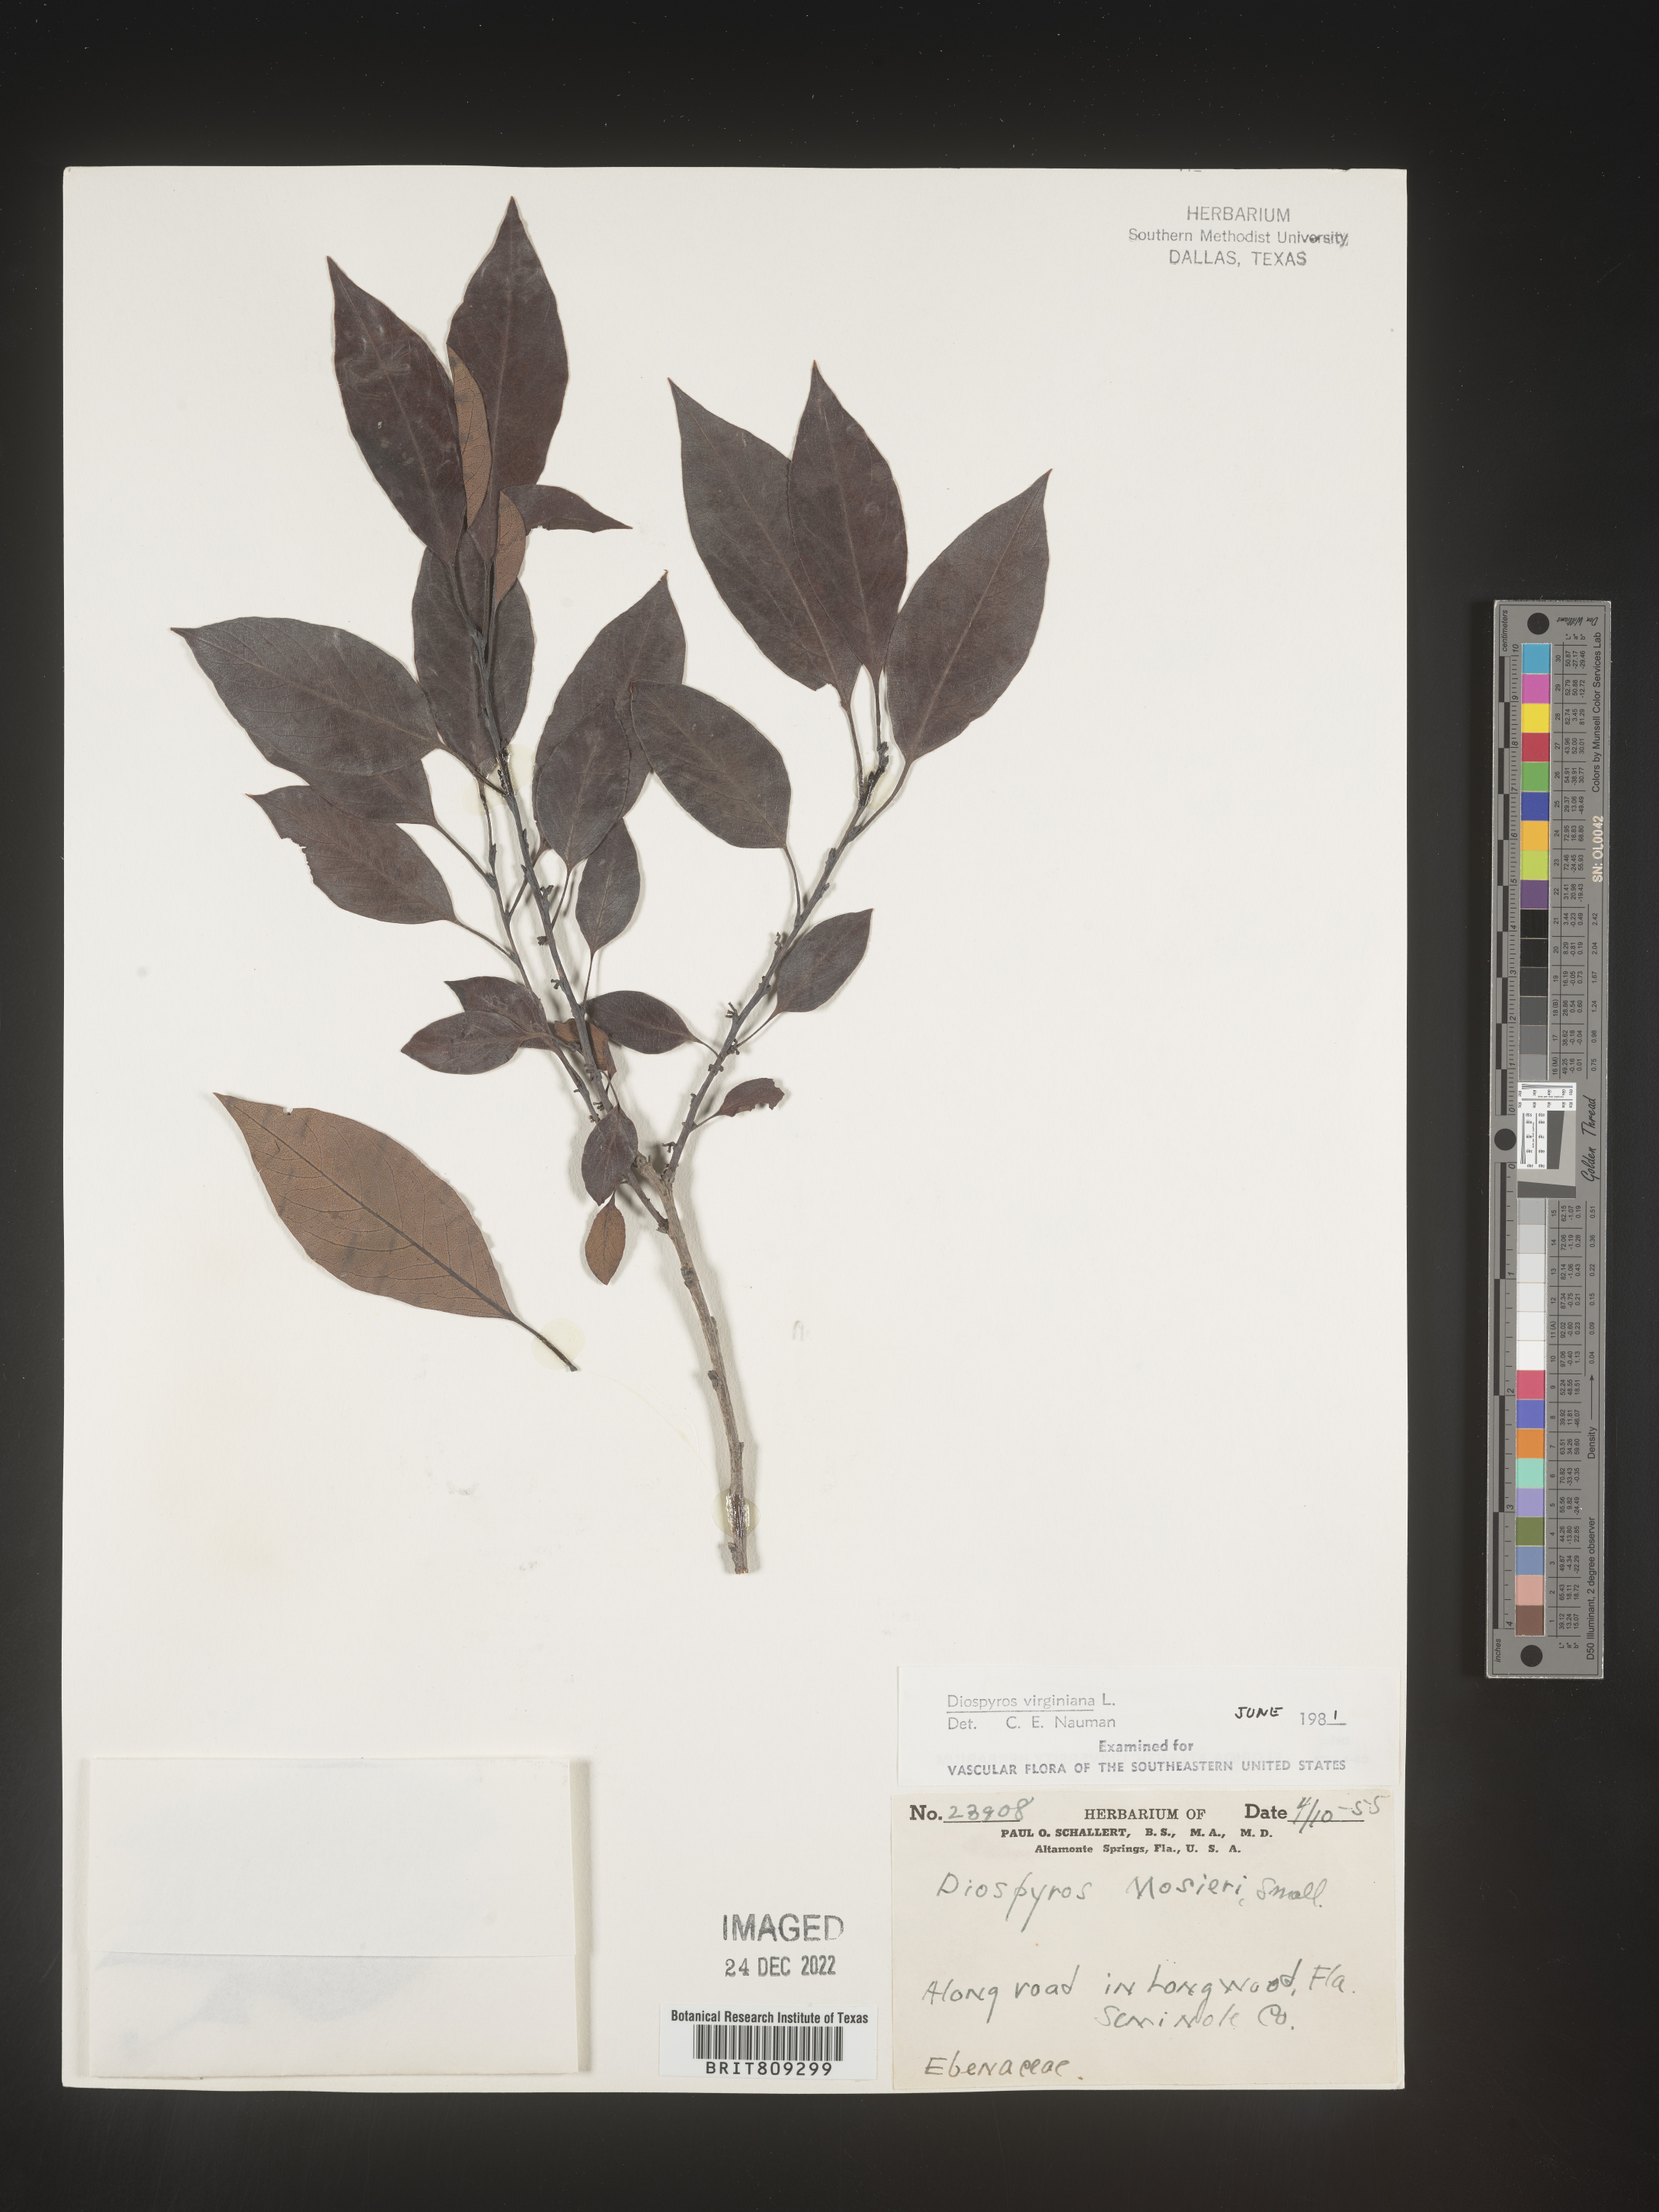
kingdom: Plantae
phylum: Tracheophyta
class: Magnoliopsida
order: Ericales
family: Ebenaceae
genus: Diospyros
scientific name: Diospyros virginiana
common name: Persimmon
